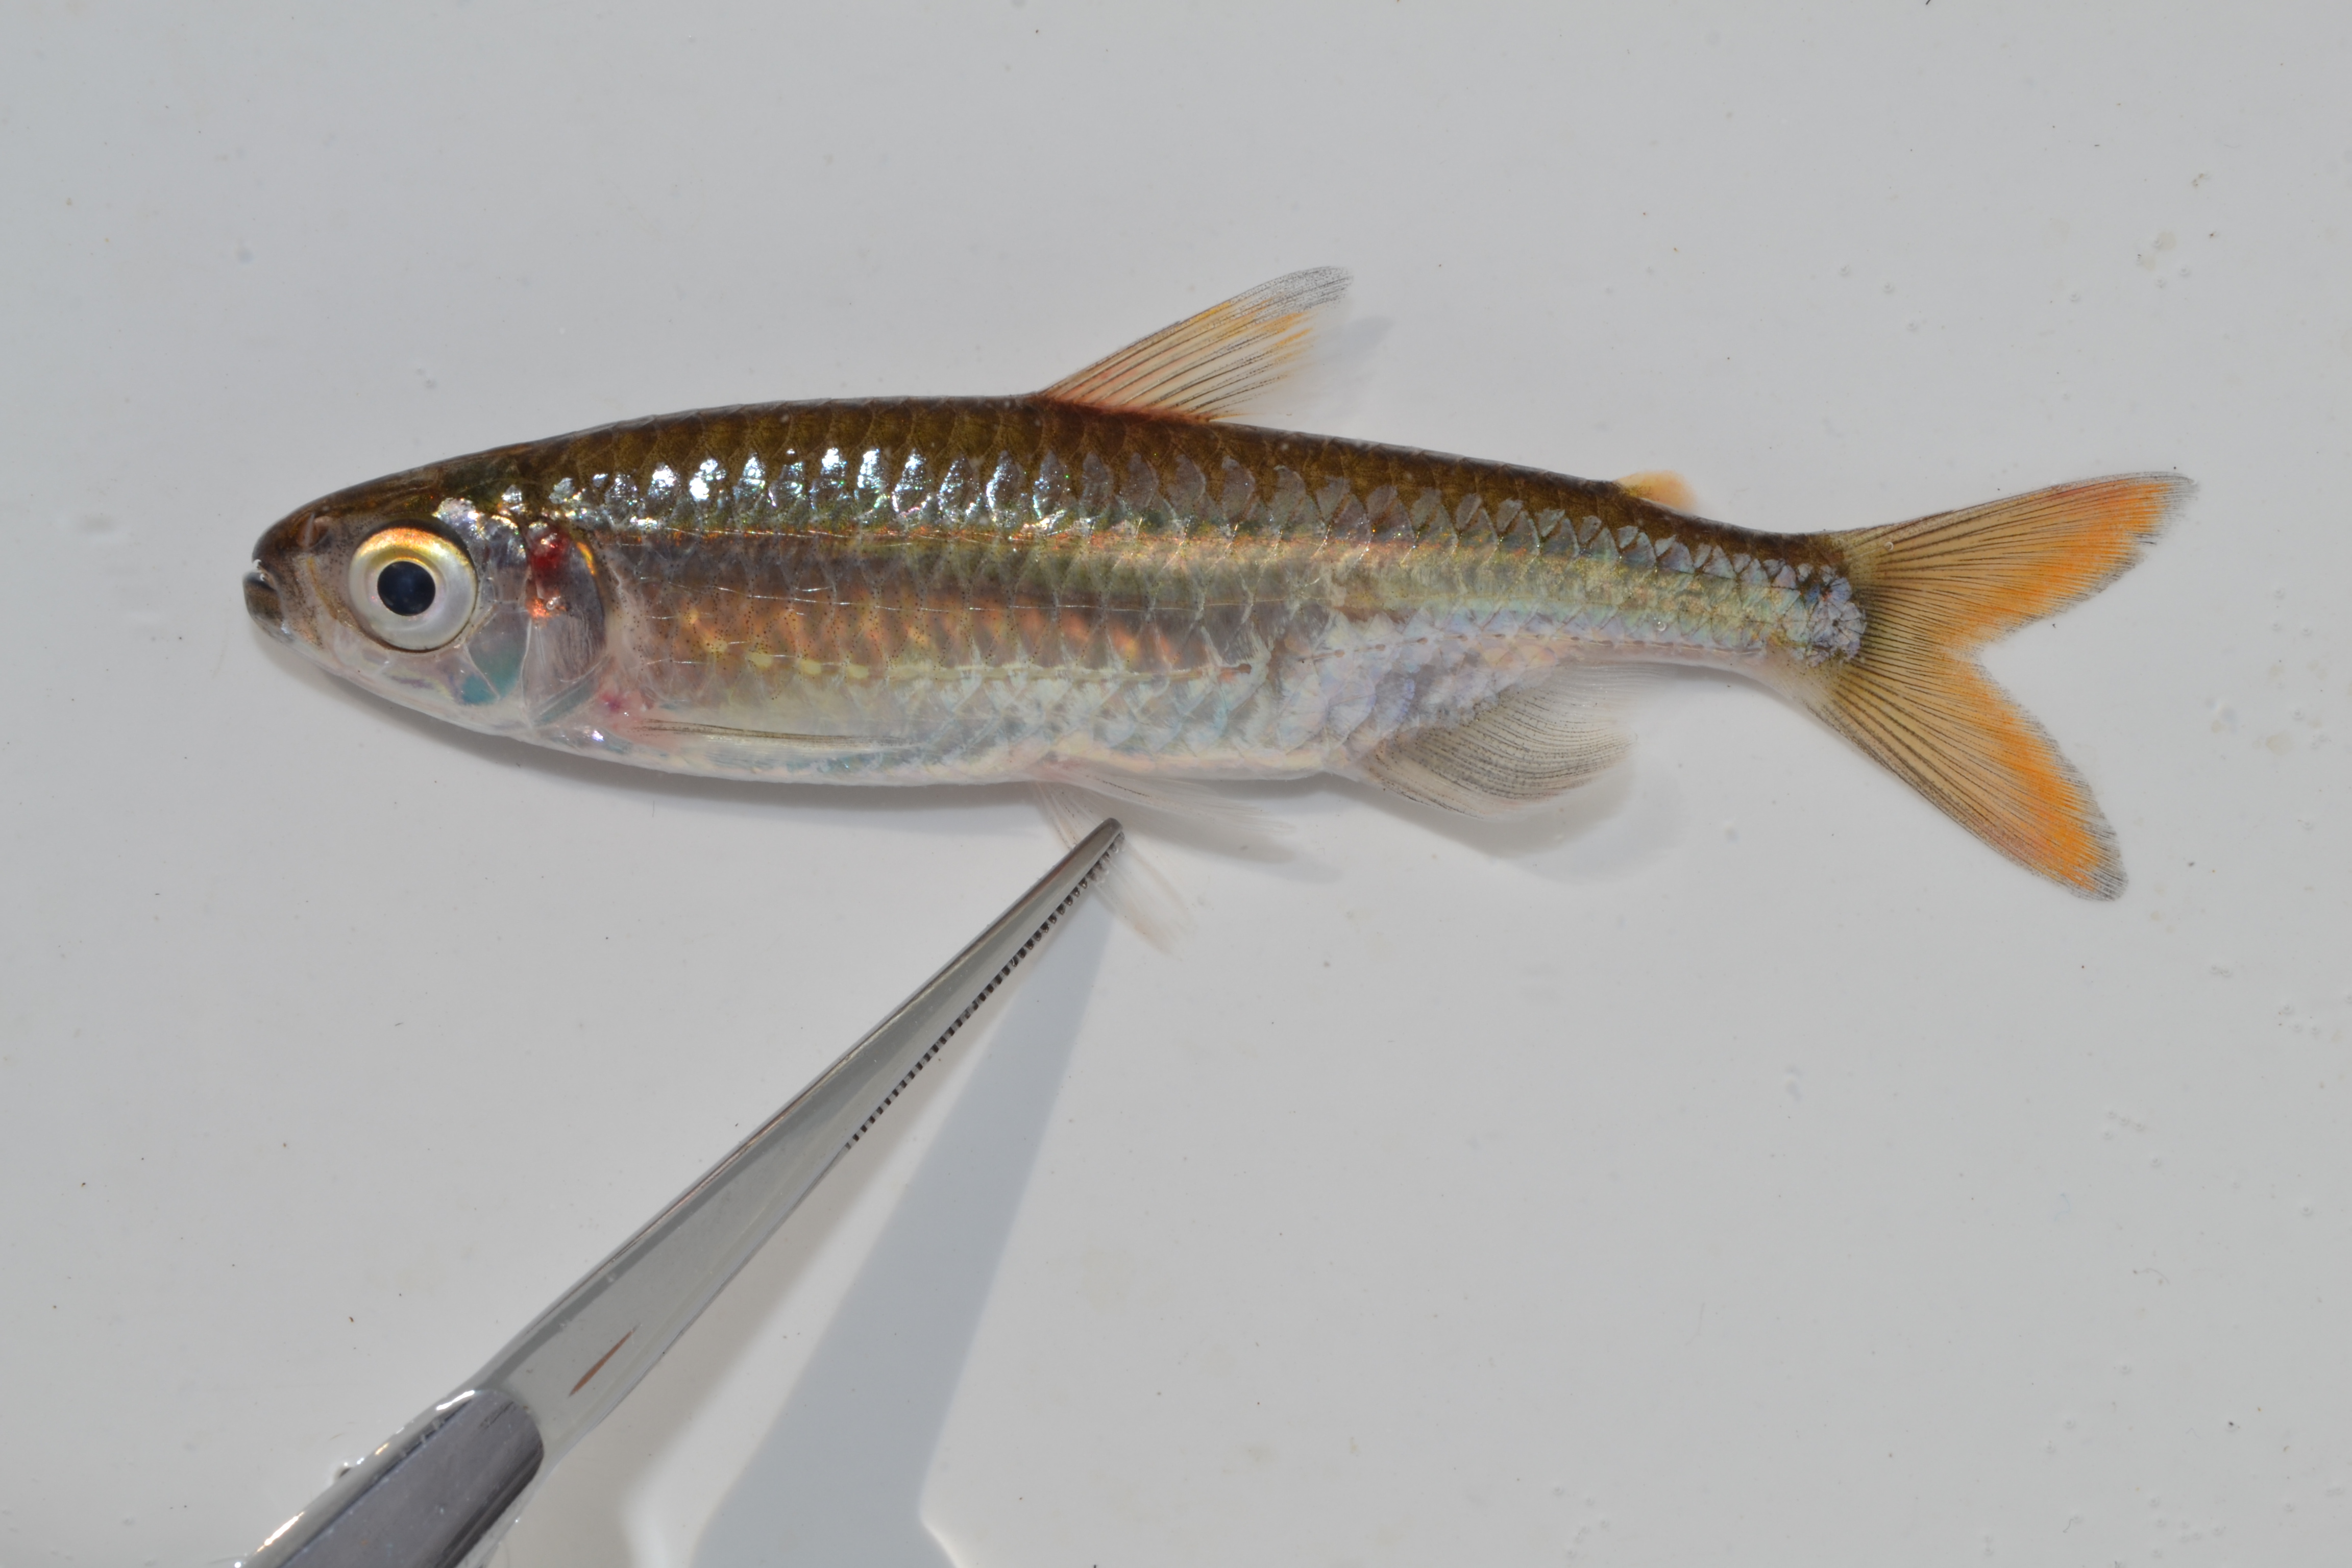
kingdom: Animalia
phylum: Chordata
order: Characiformes
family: Alestidae
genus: Micralestes
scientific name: Micralestes acutidens
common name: Silver robber
